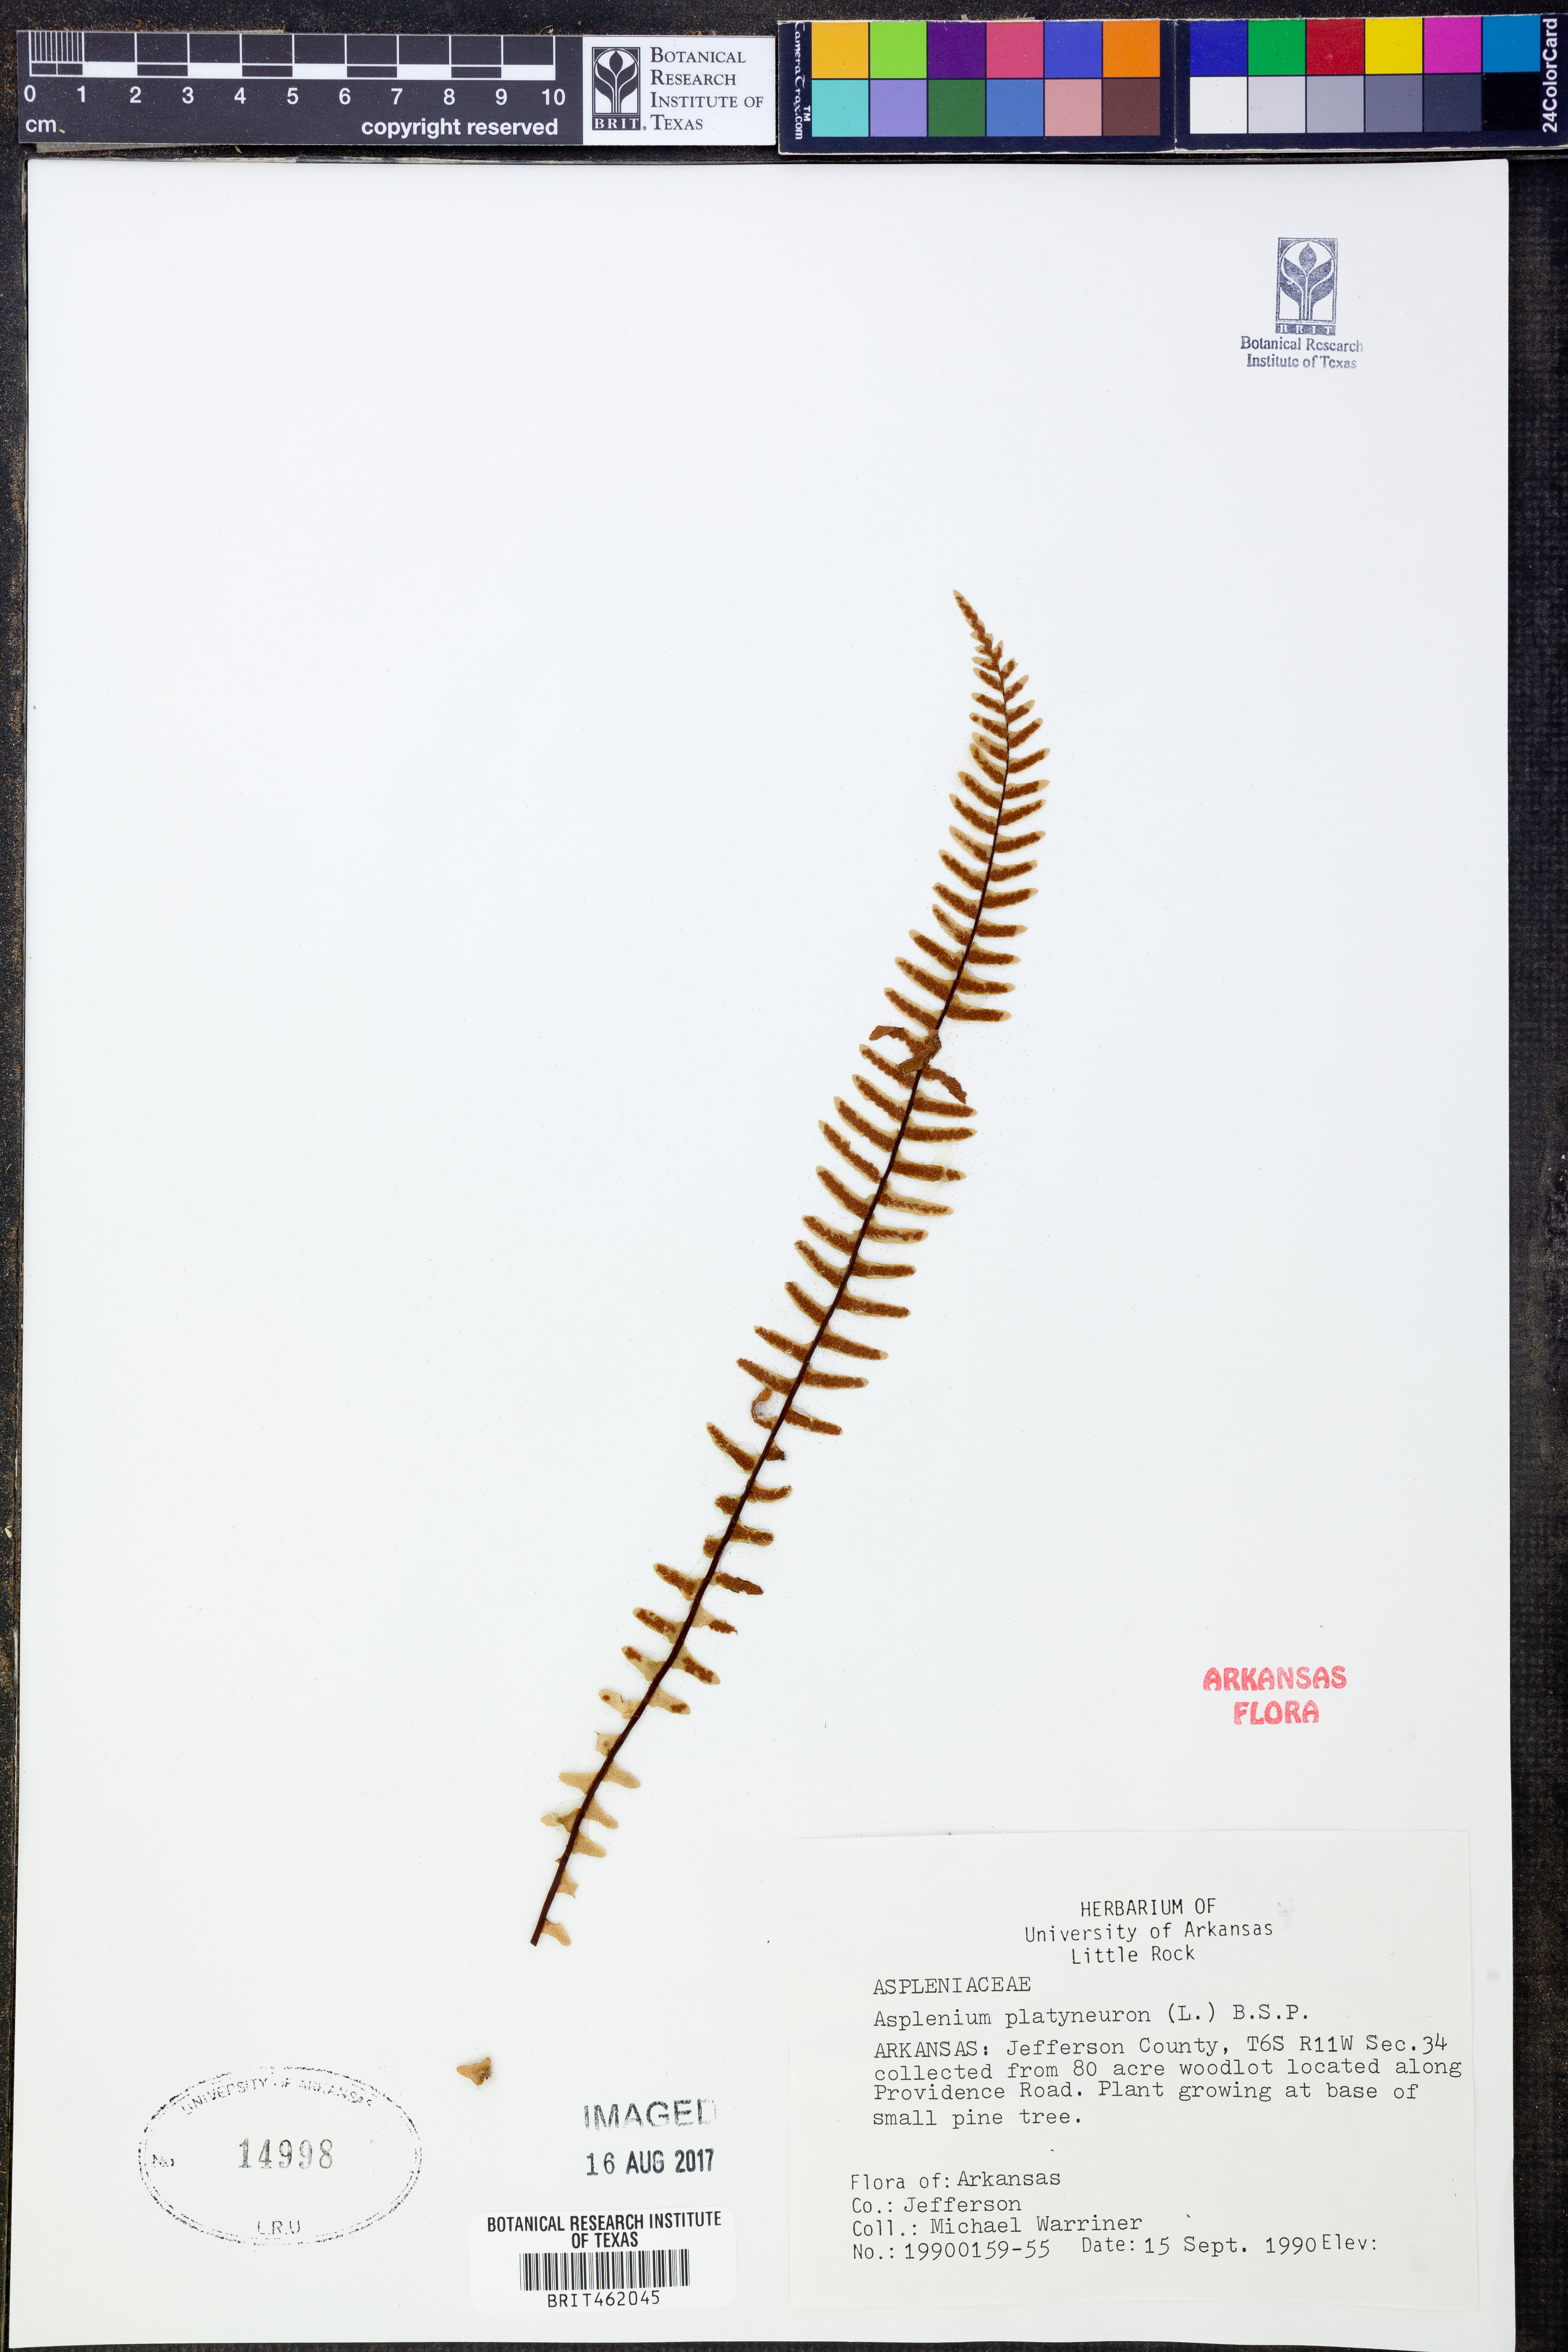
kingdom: Plantae
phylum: Tracheophyta
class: Polypodiopsida
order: Polypodiales
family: Aspleniaceae
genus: Asplenium
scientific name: Asplenium platyneuron
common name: Ebony spleenwort
